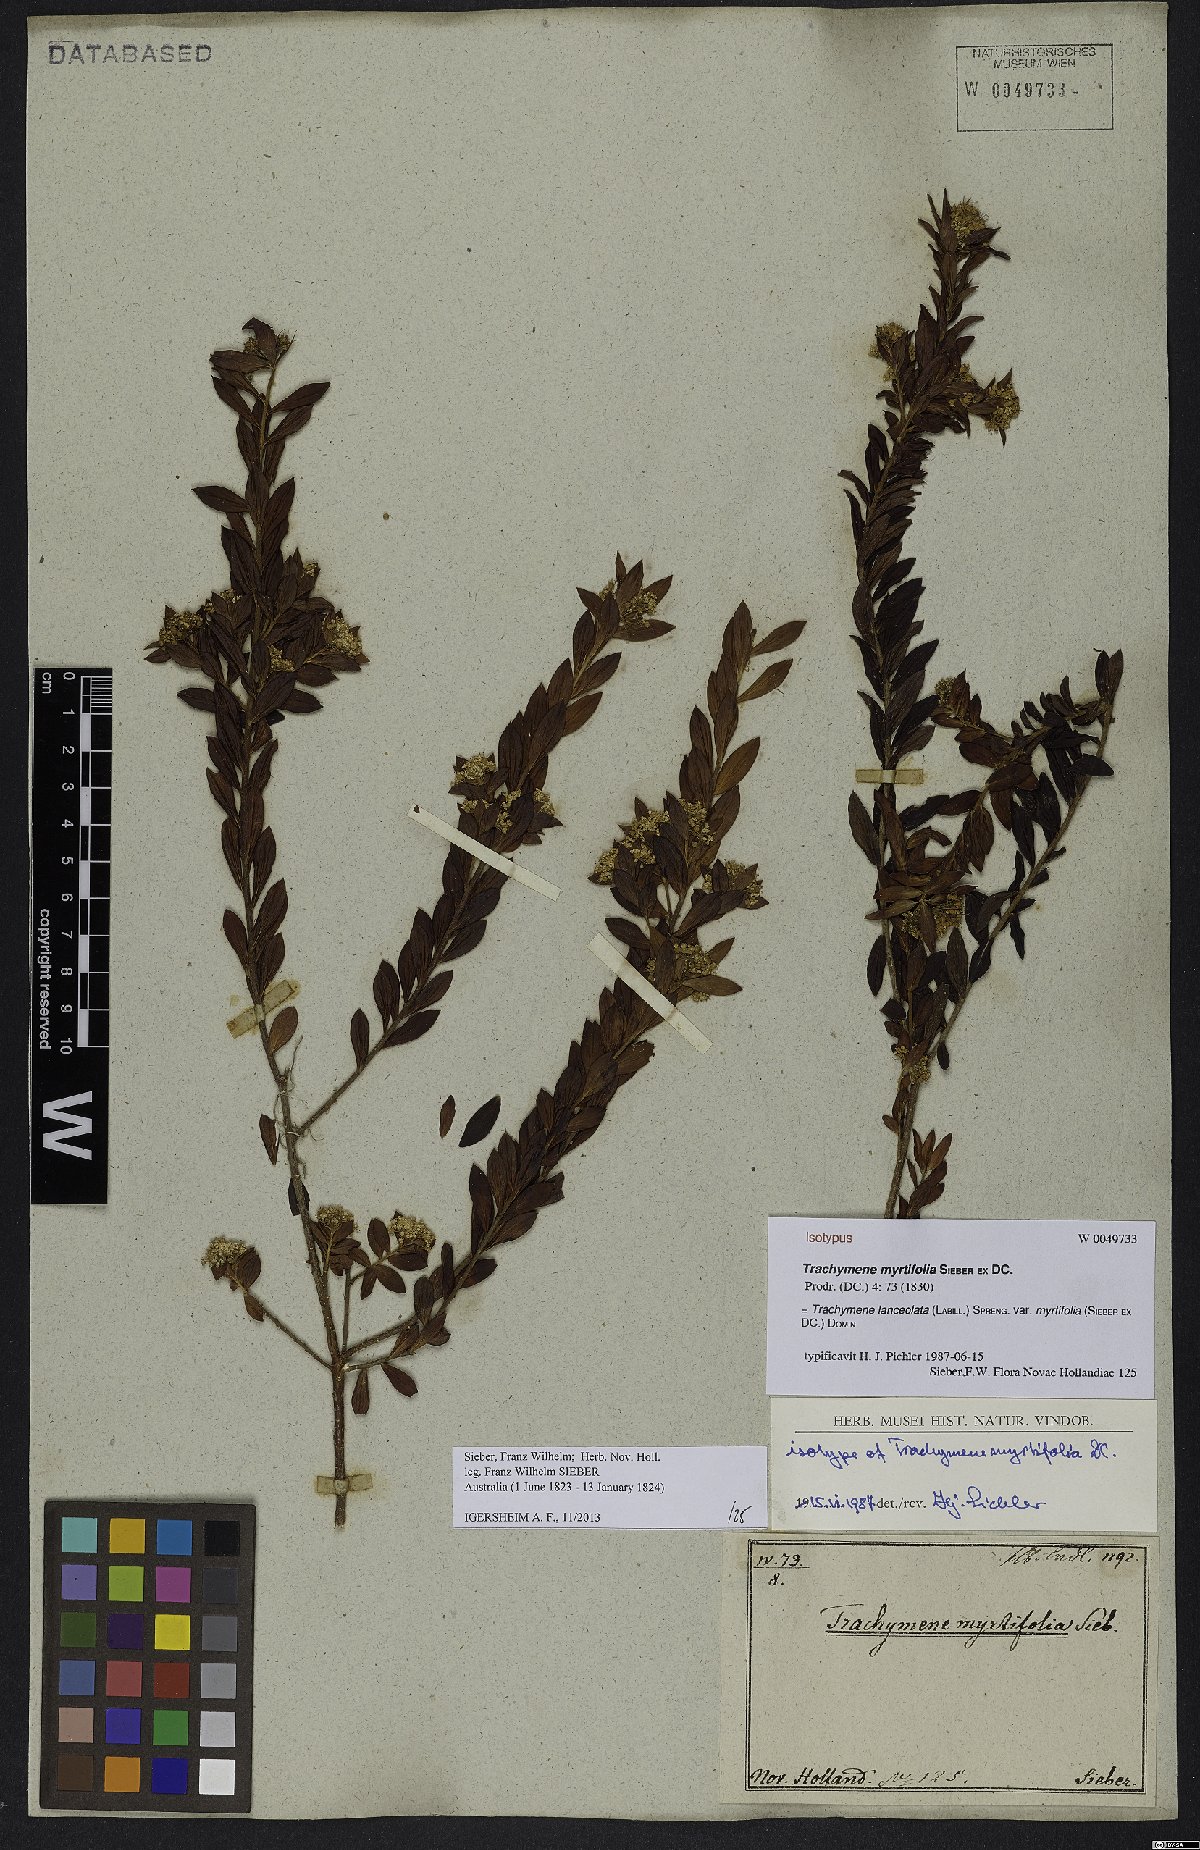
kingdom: Plantae
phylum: Tracheophyta
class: Magnoliopsida
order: Apiales
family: Apiaceae
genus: Platysace
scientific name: Platysace lanceolata
